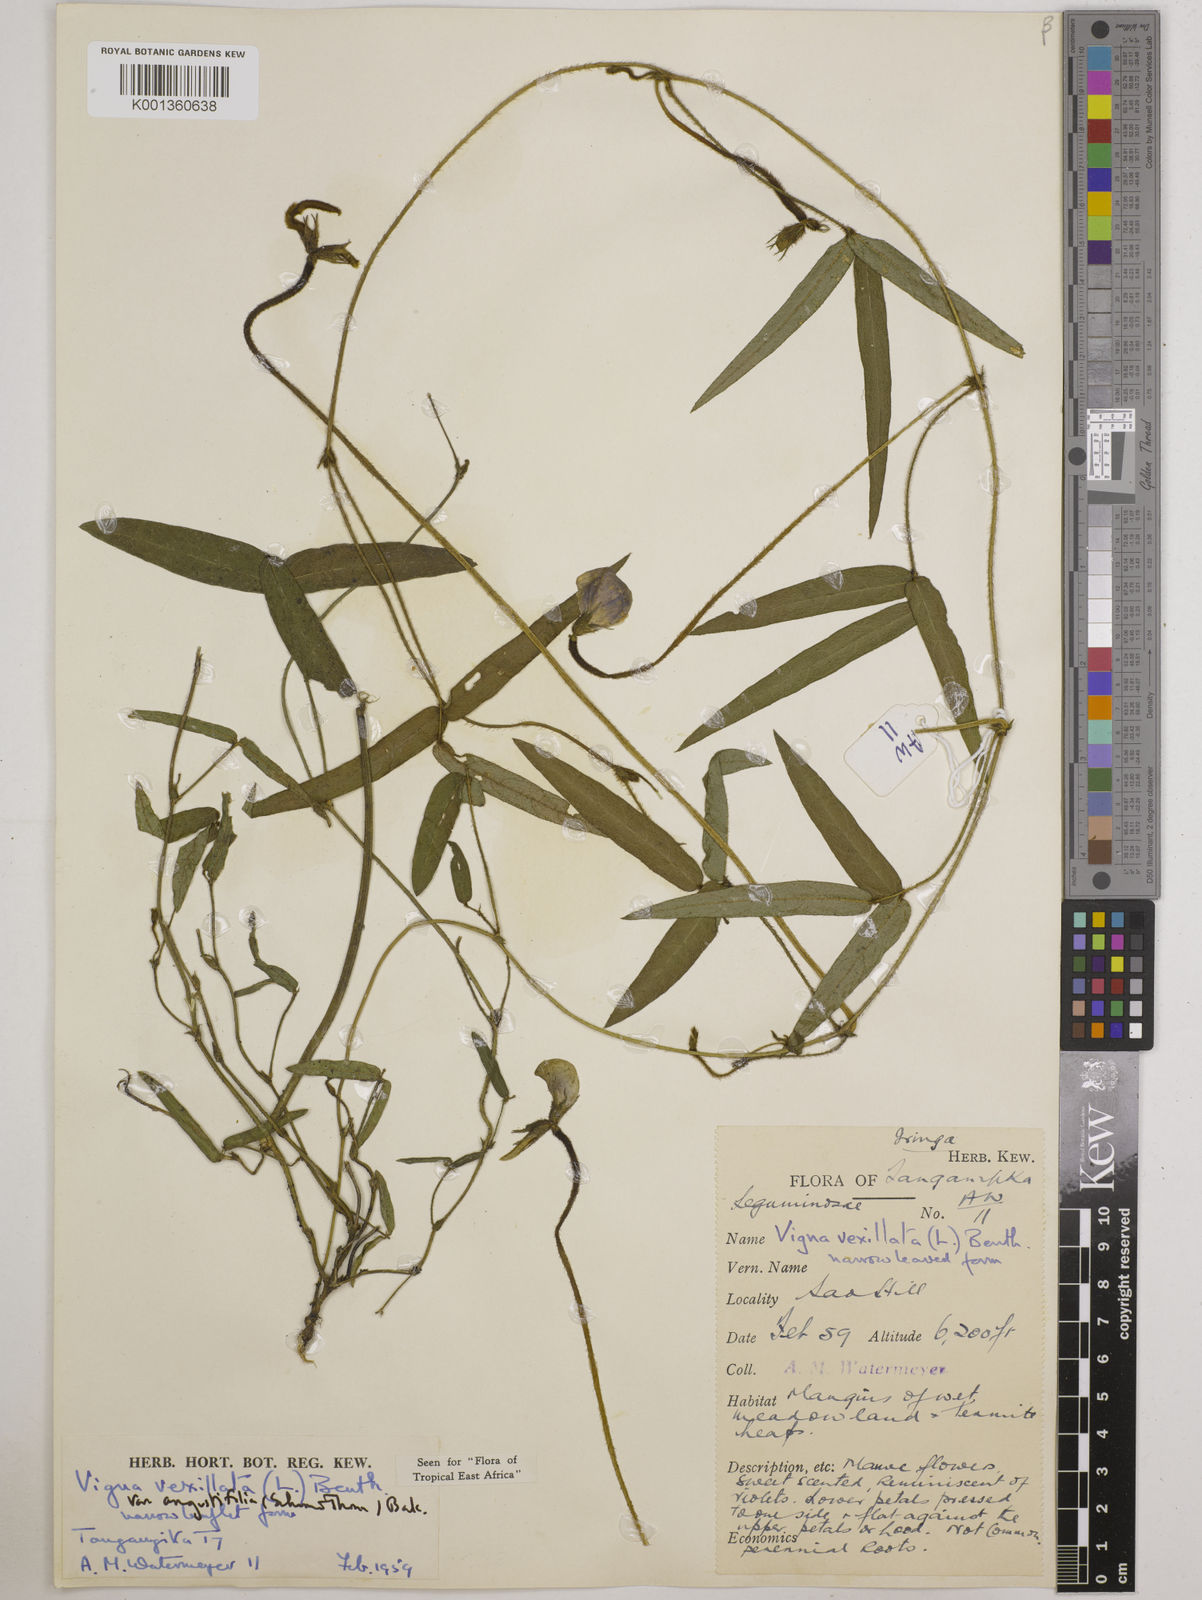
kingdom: Plantae
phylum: Tracheophyta
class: Magnoliopsida
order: Fabales
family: Fabaceae
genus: Vigna
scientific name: Vigna vexillata
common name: Zombi pea
